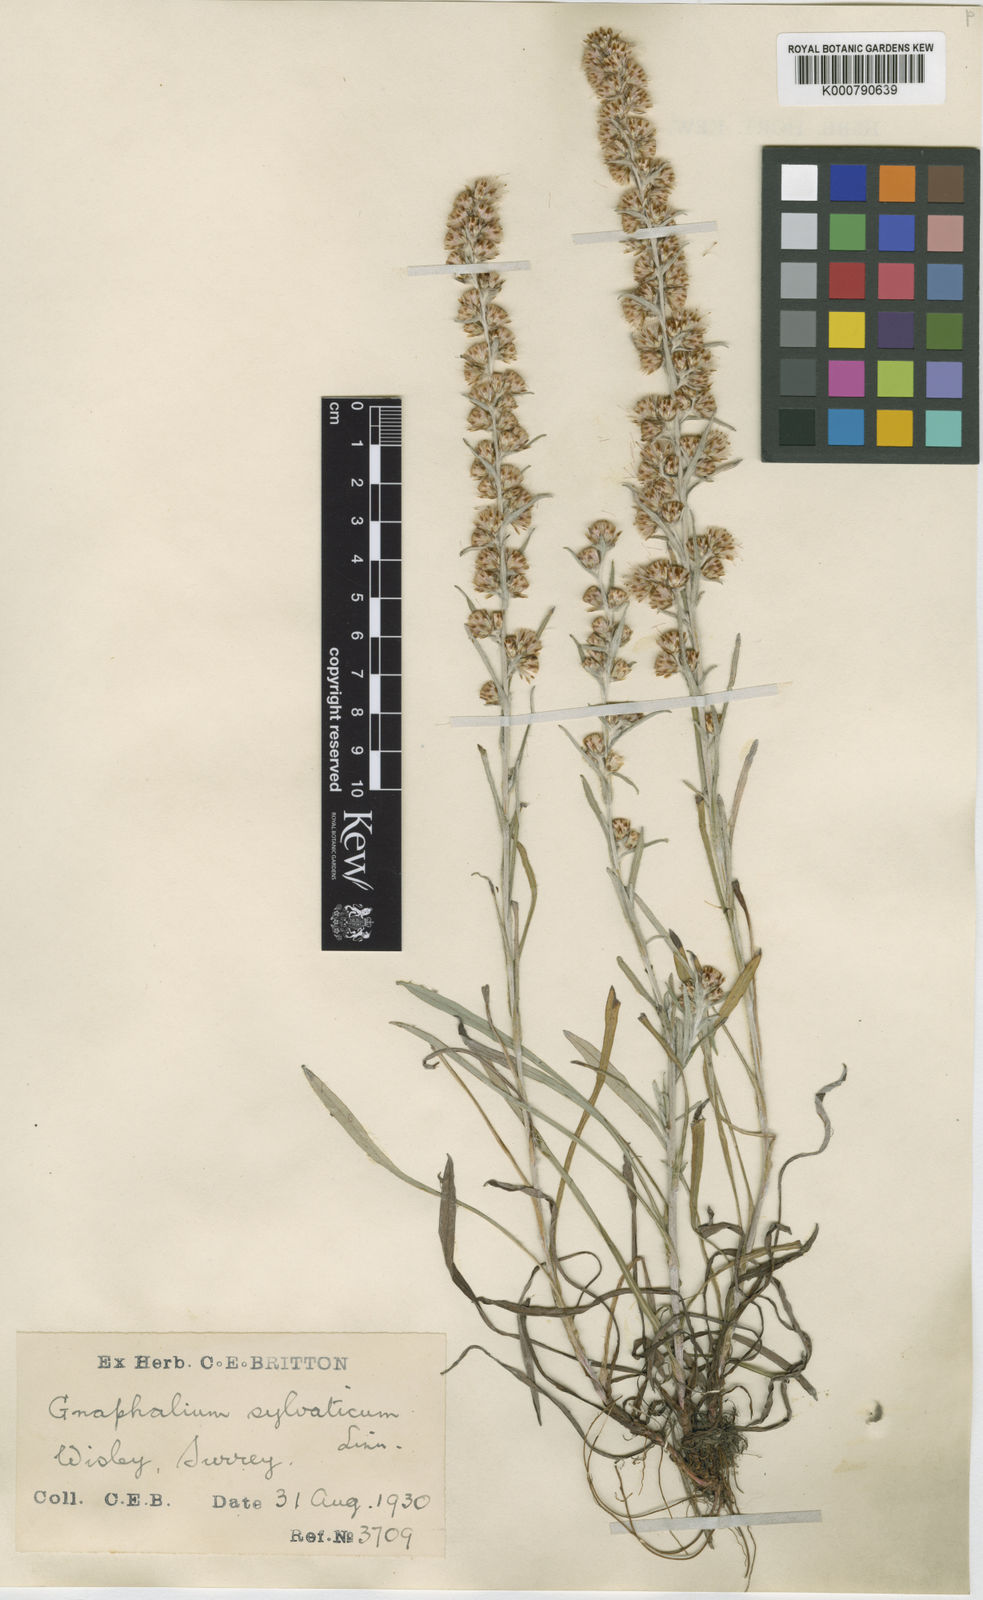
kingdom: Plantae
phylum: Tracheophyta
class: Magnoliopsida
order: Asterales
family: Asteraceae
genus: Omalotheca
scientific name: Omalotheca sylvatica
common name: Heath cudweed
